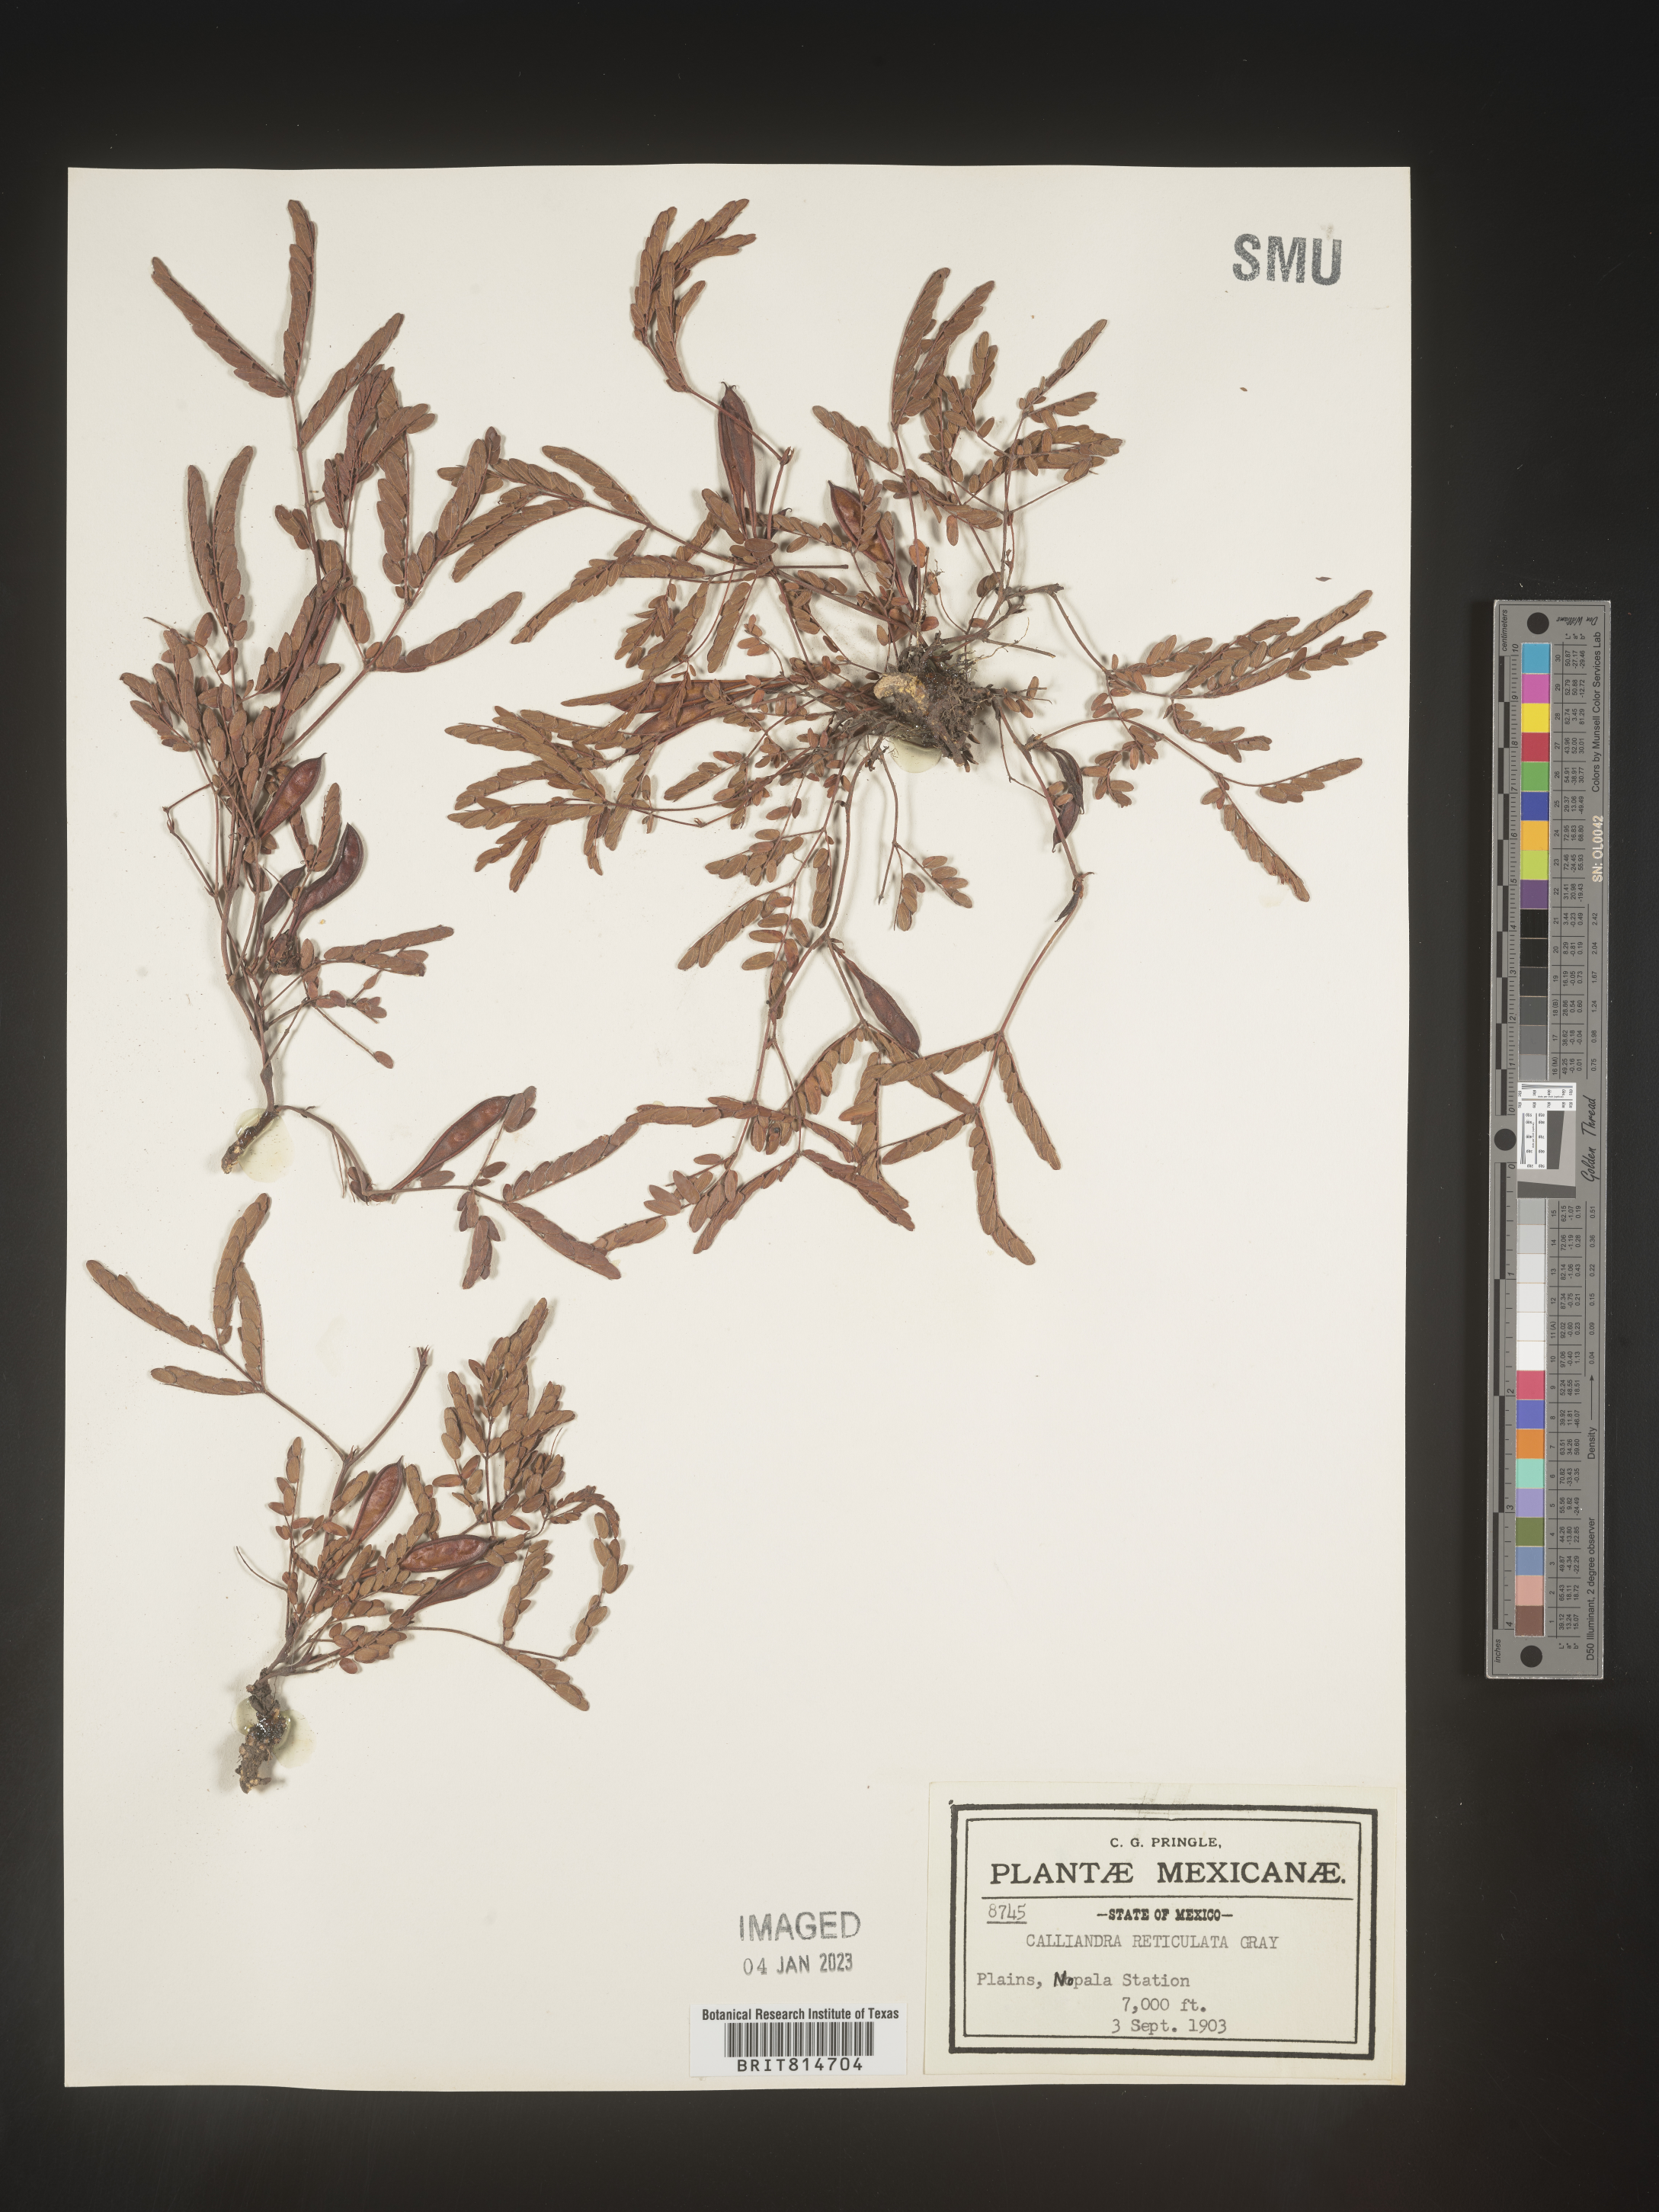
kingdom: Plantae
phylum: Tracheophyta
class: Magnoliopsida
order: Fabales
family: Fabaceae
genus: Calliandra
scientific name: Calliandra
